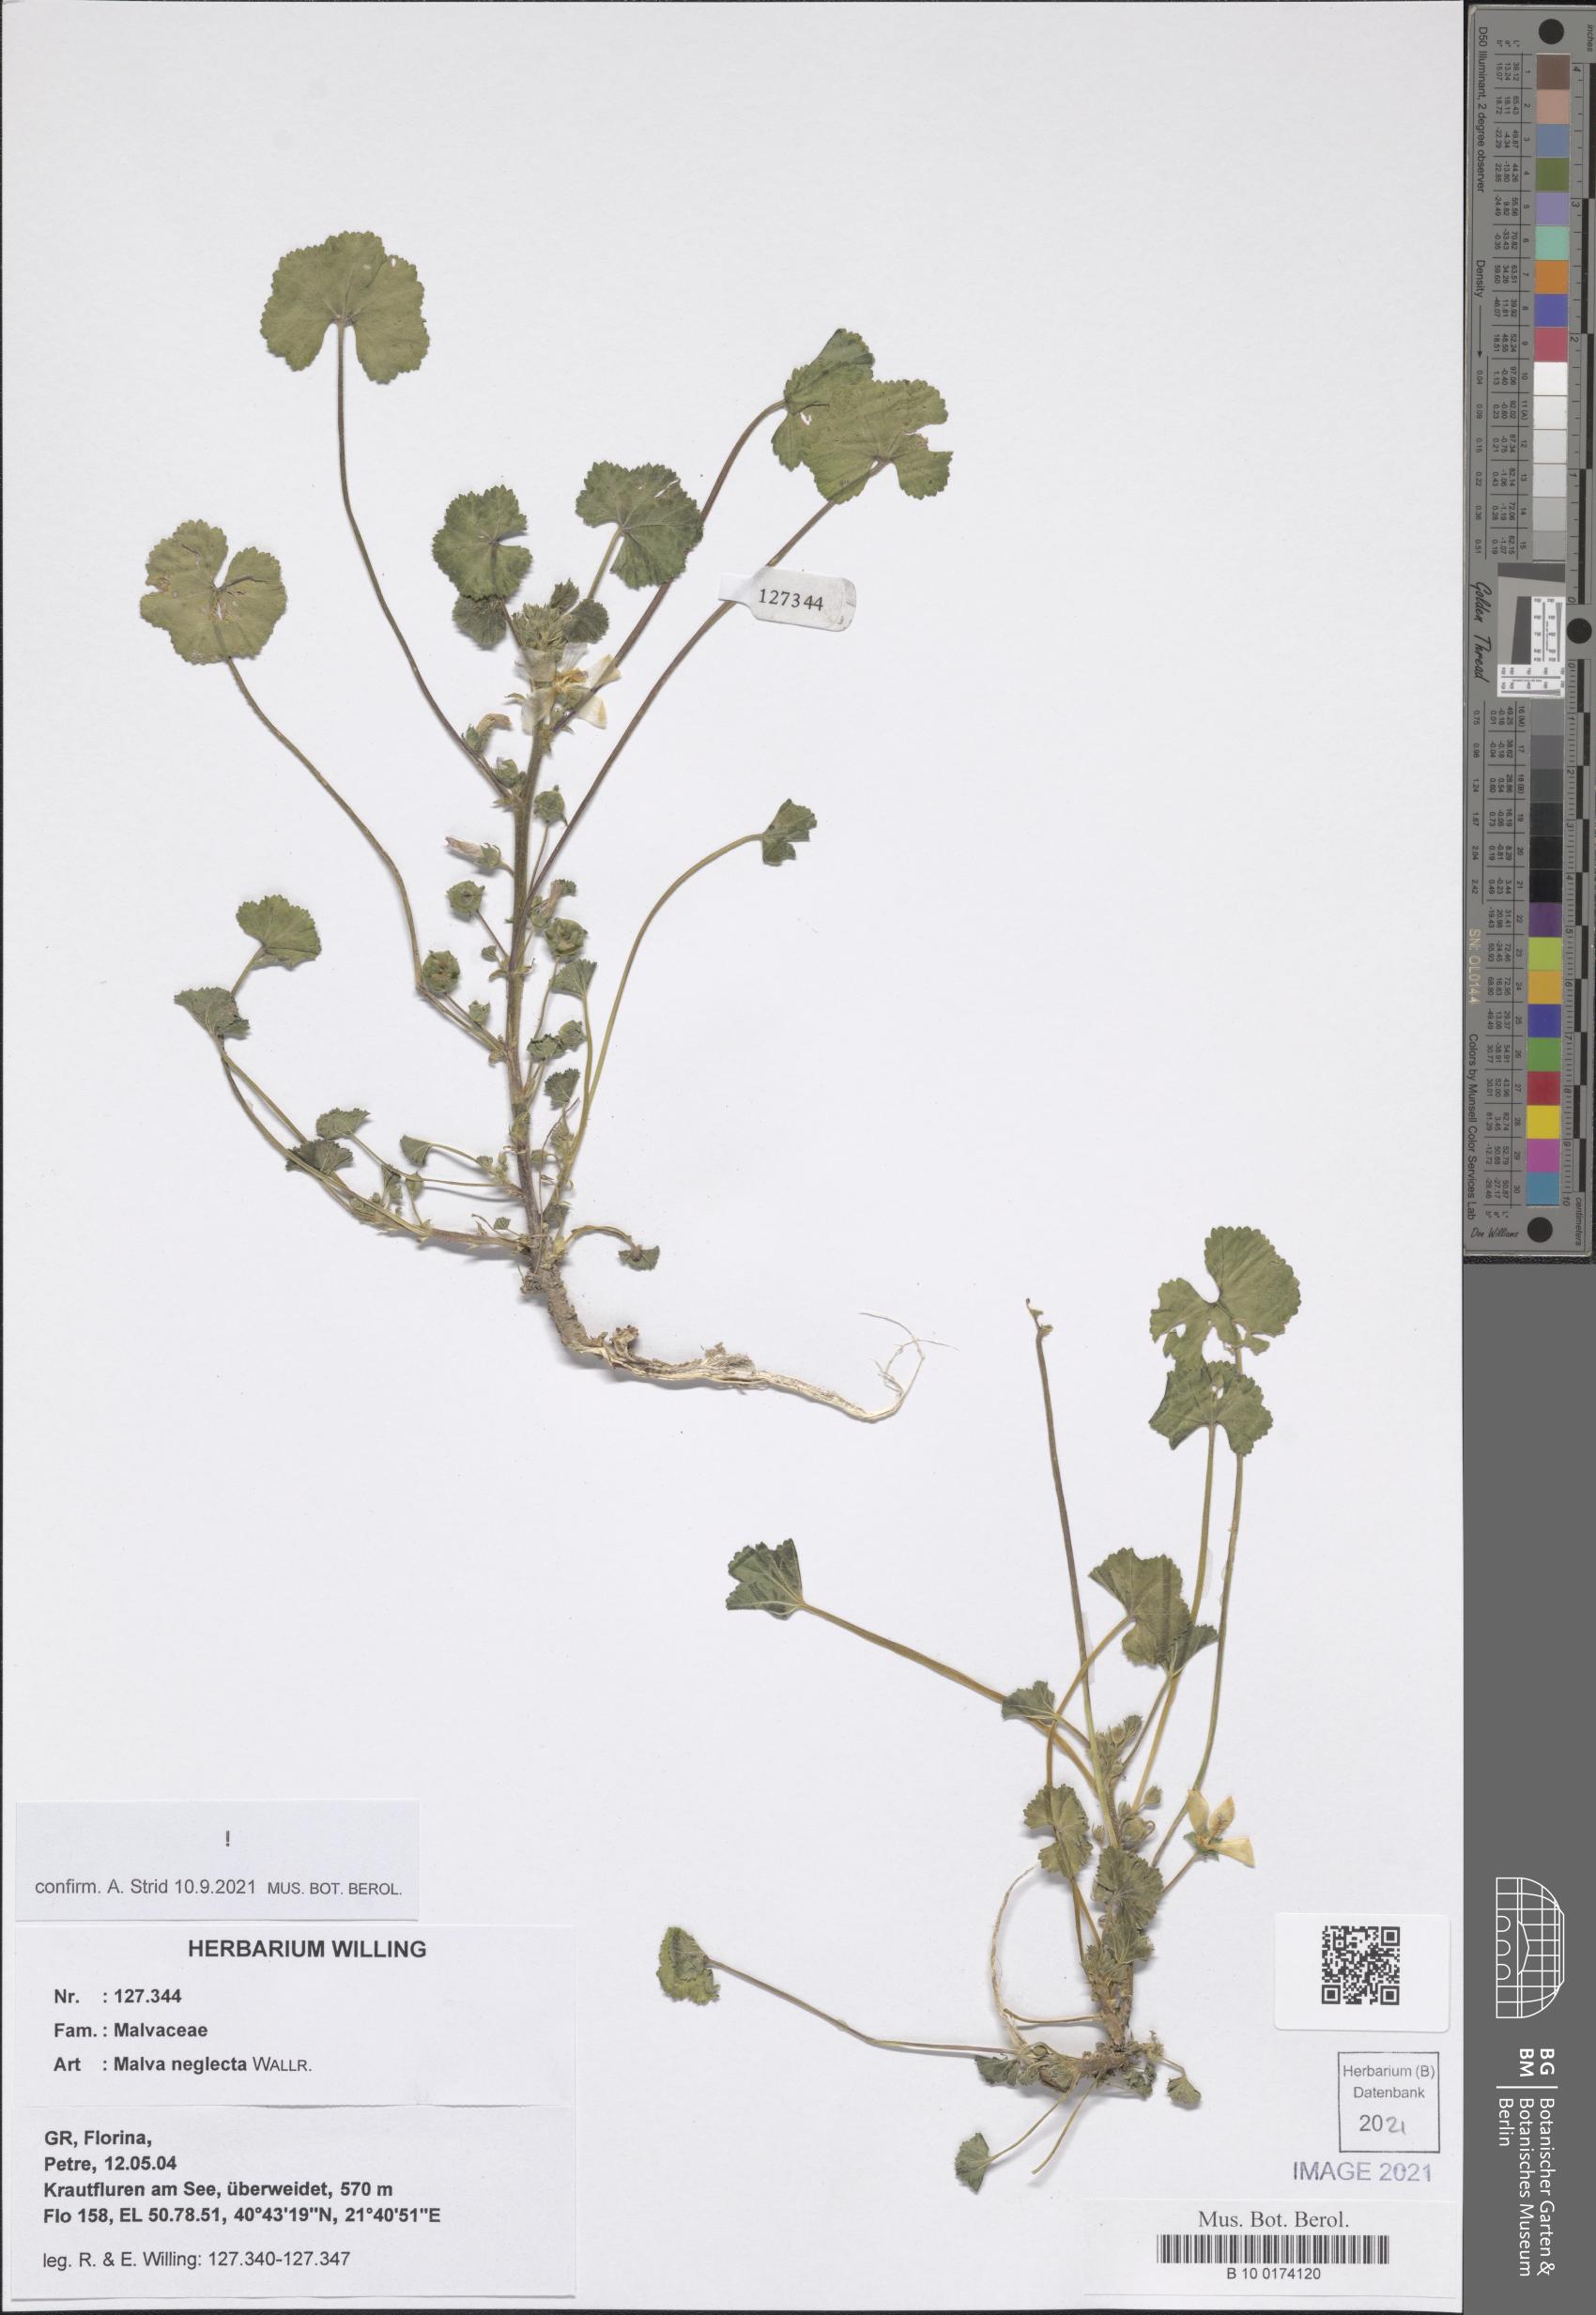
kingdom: Plantae
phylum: Tracheophyta
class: Magnoliopsida
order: Malvales
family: Malvaceae
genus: Malva
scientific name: Malva neglecta
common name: Common mallow
